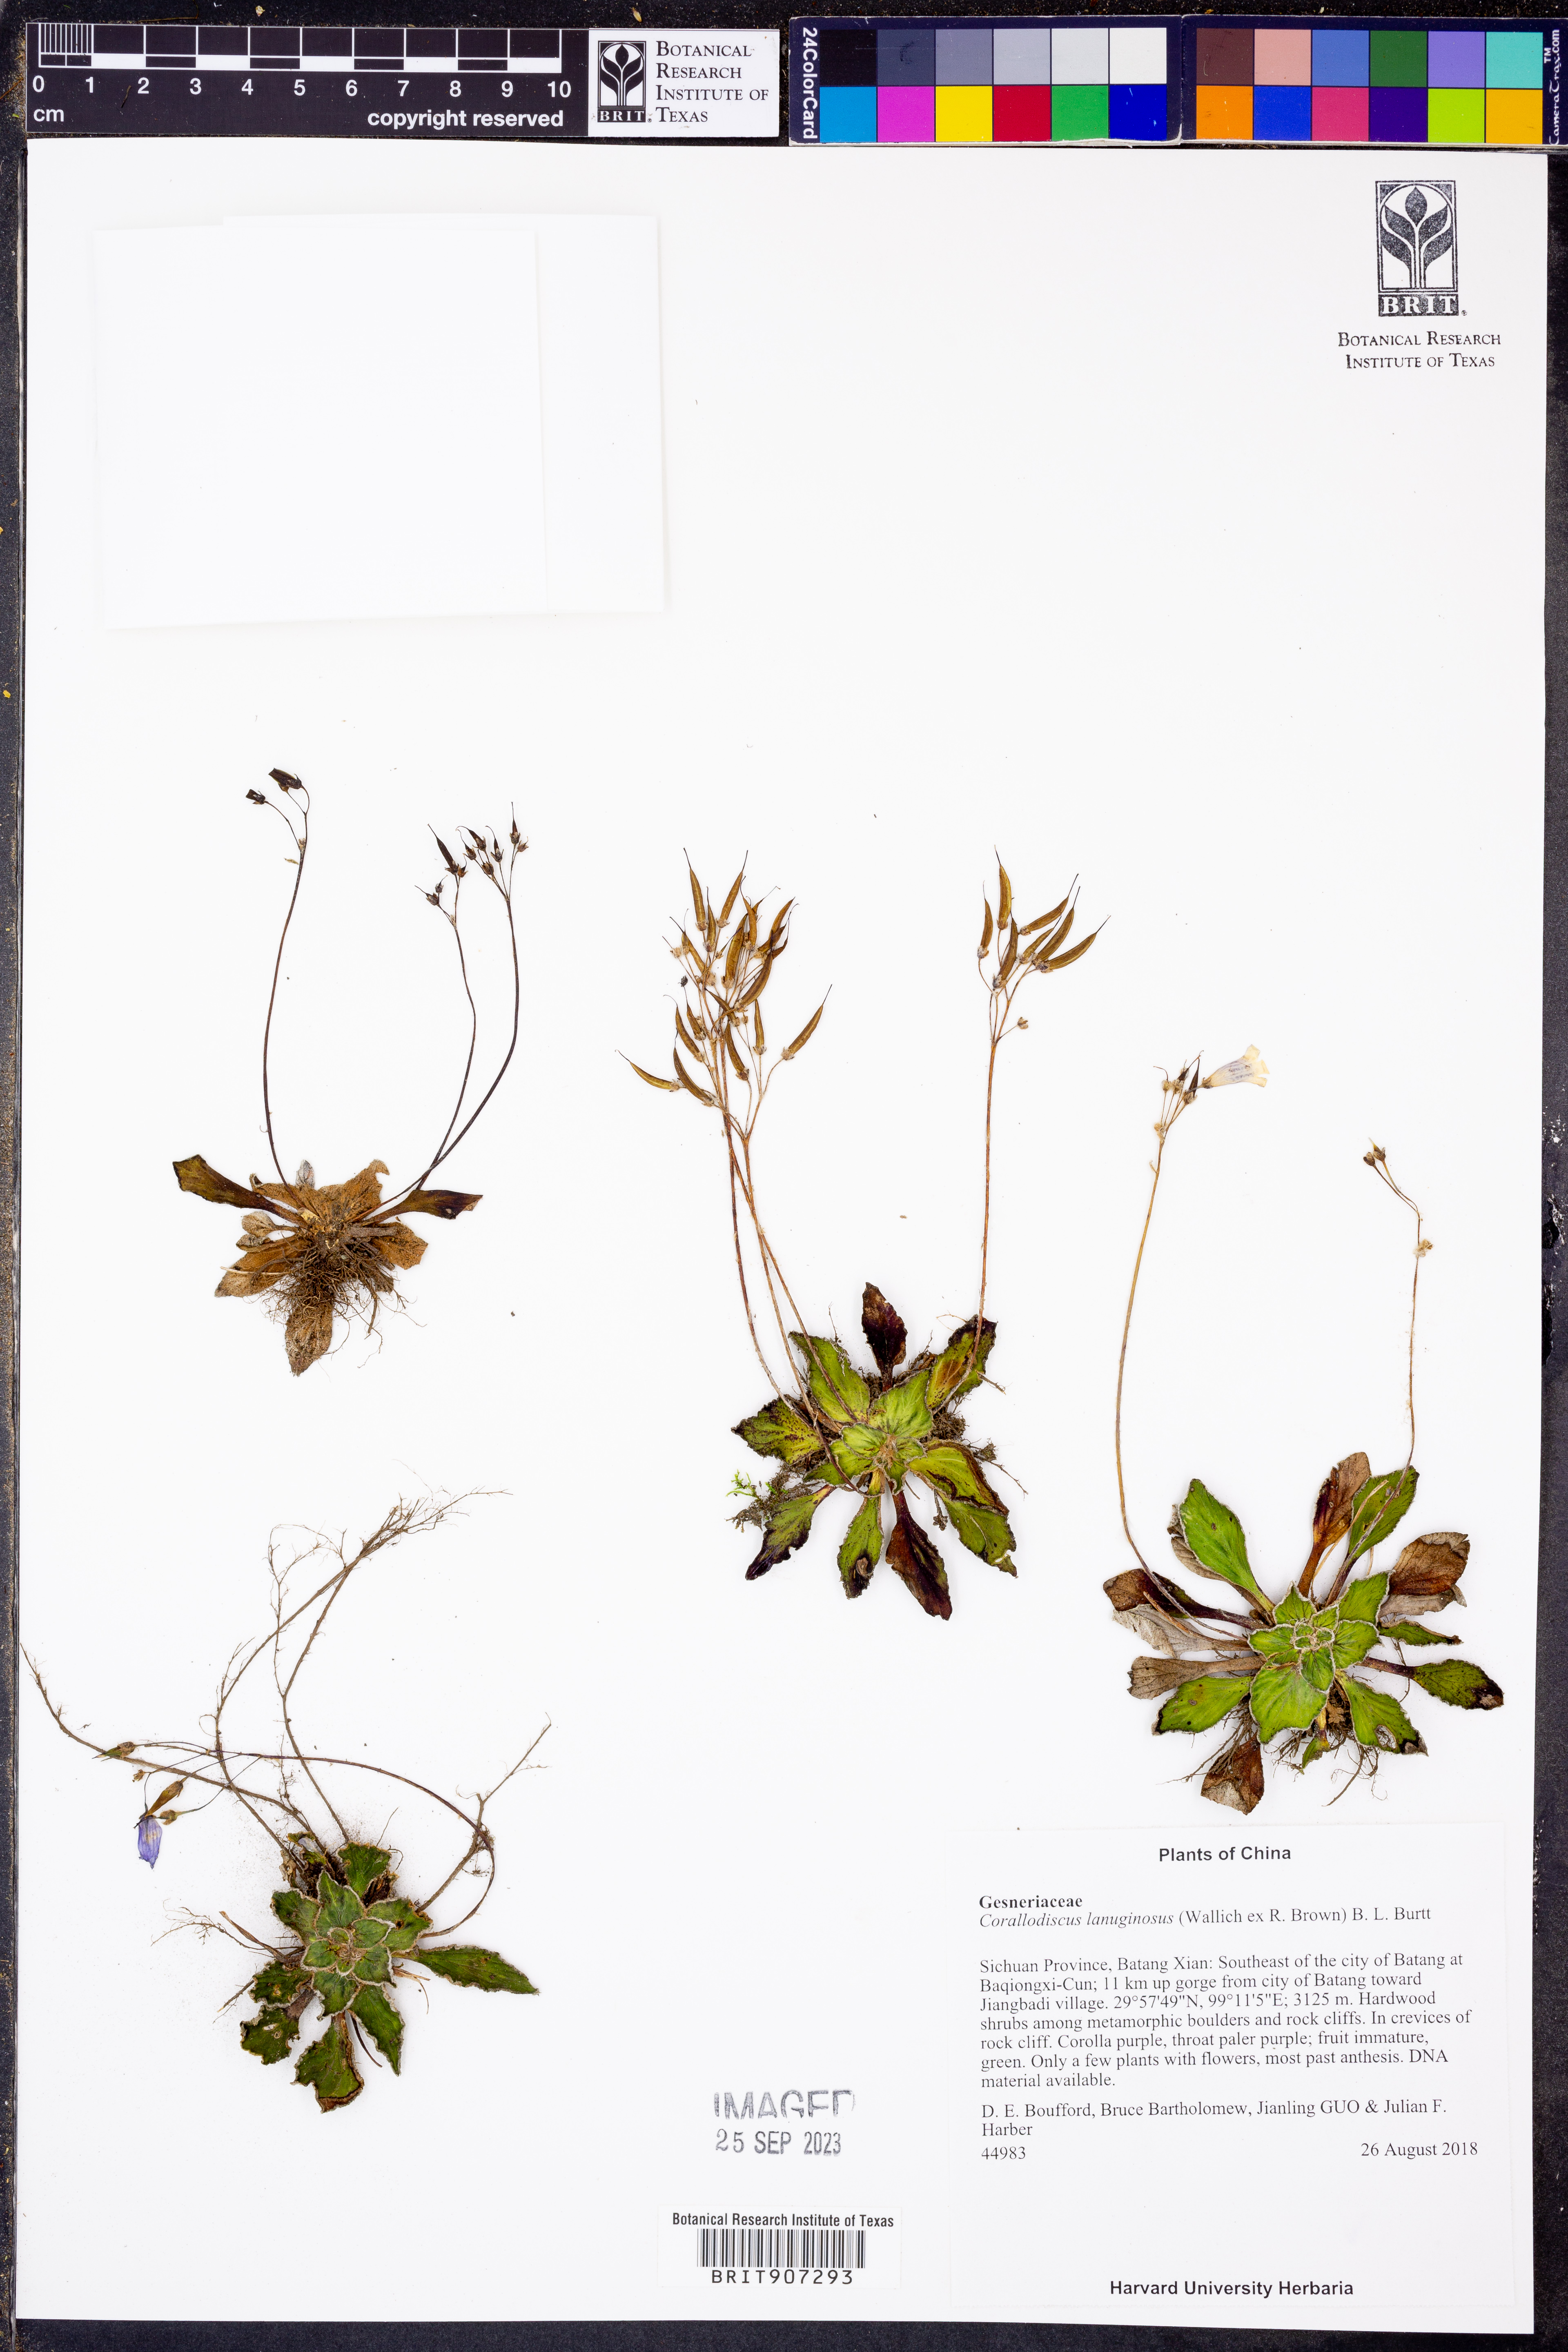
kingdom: Plantae
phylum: Tracheophyta
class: Magnoliopsida
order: Lamiales
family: Gesneriaceae
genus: Corallodiscus
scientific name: Corallodiscus lanuginosus
